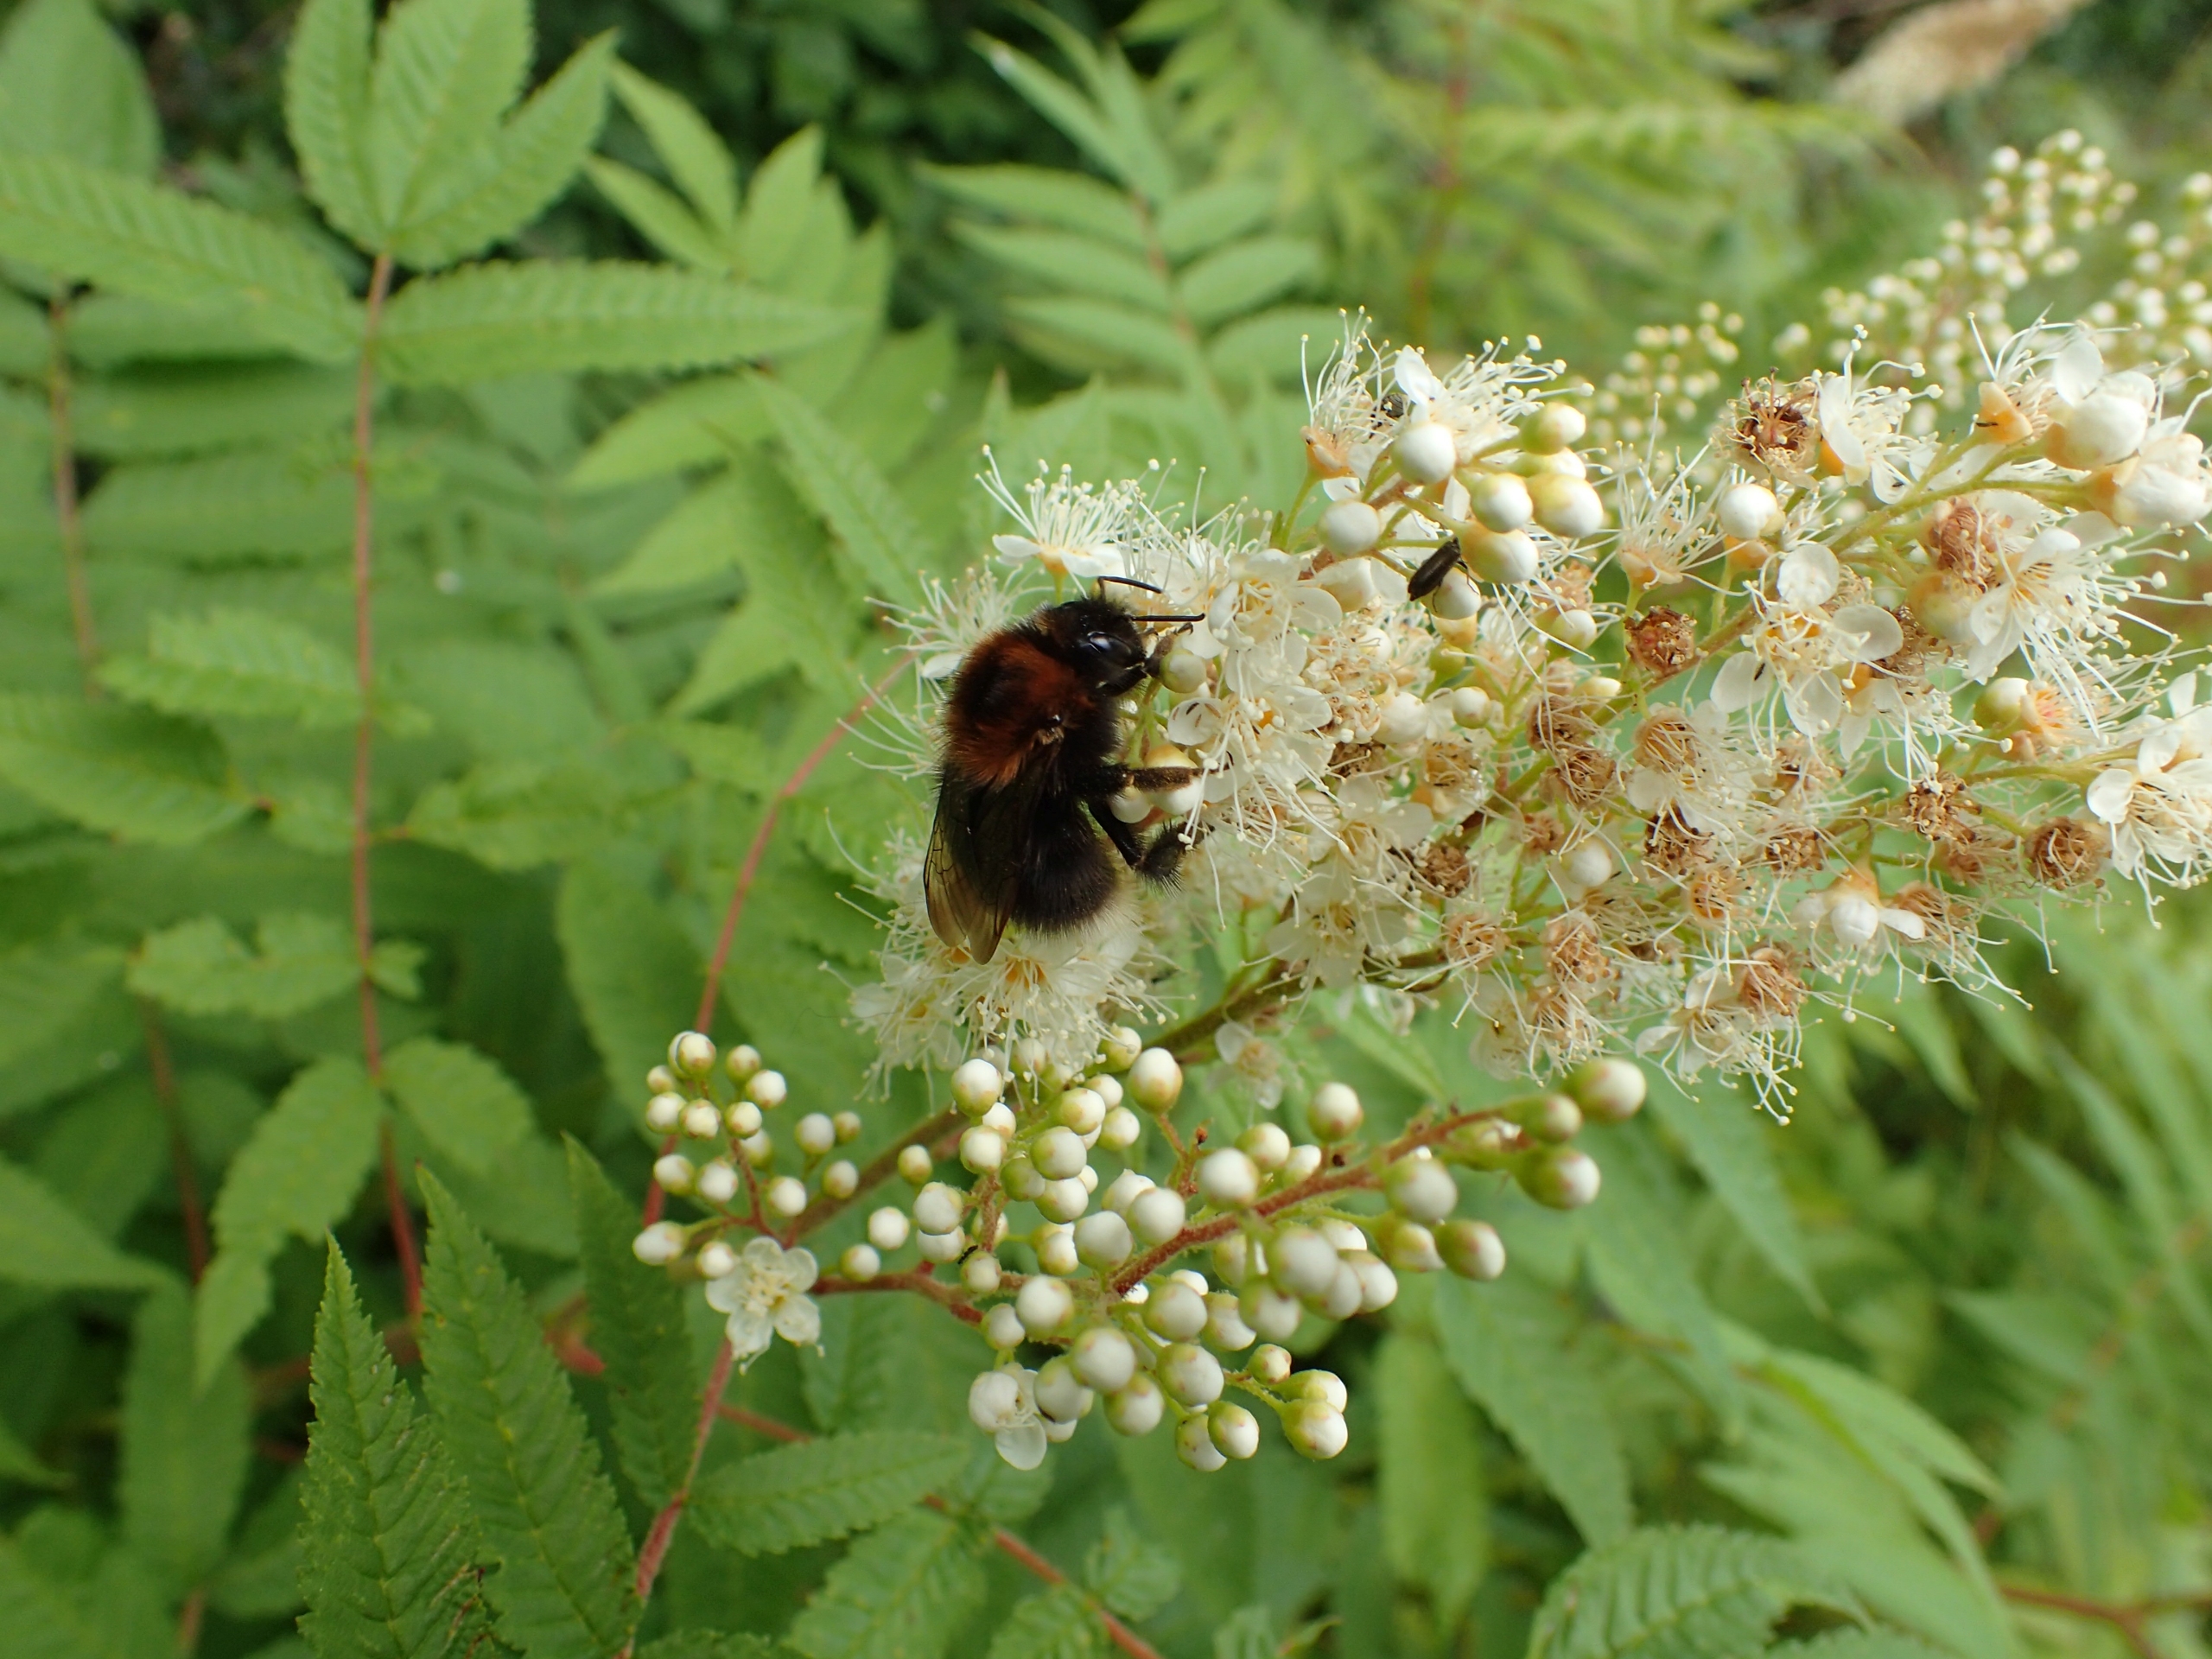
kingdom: Plantae
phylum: Tracheophyta
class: Magnoliopsida
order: Rosales
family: Rosaceae
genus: Sorbaria
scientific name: Sorbaria sorbifolia
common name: Tusindtop
